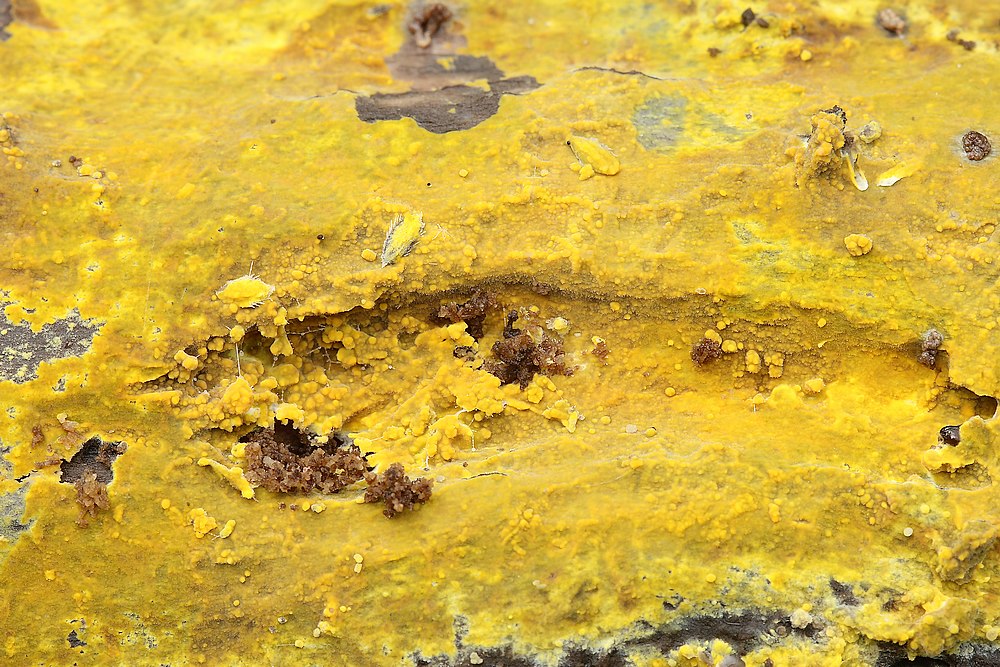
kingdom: Fungi
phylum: Basidiomycota
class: Agaricomycetes
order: Polyporales
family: Meruliaceae
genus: Phlebiodontia
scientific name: Phlebiodontia subochracea
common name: svovl-åresvamp
